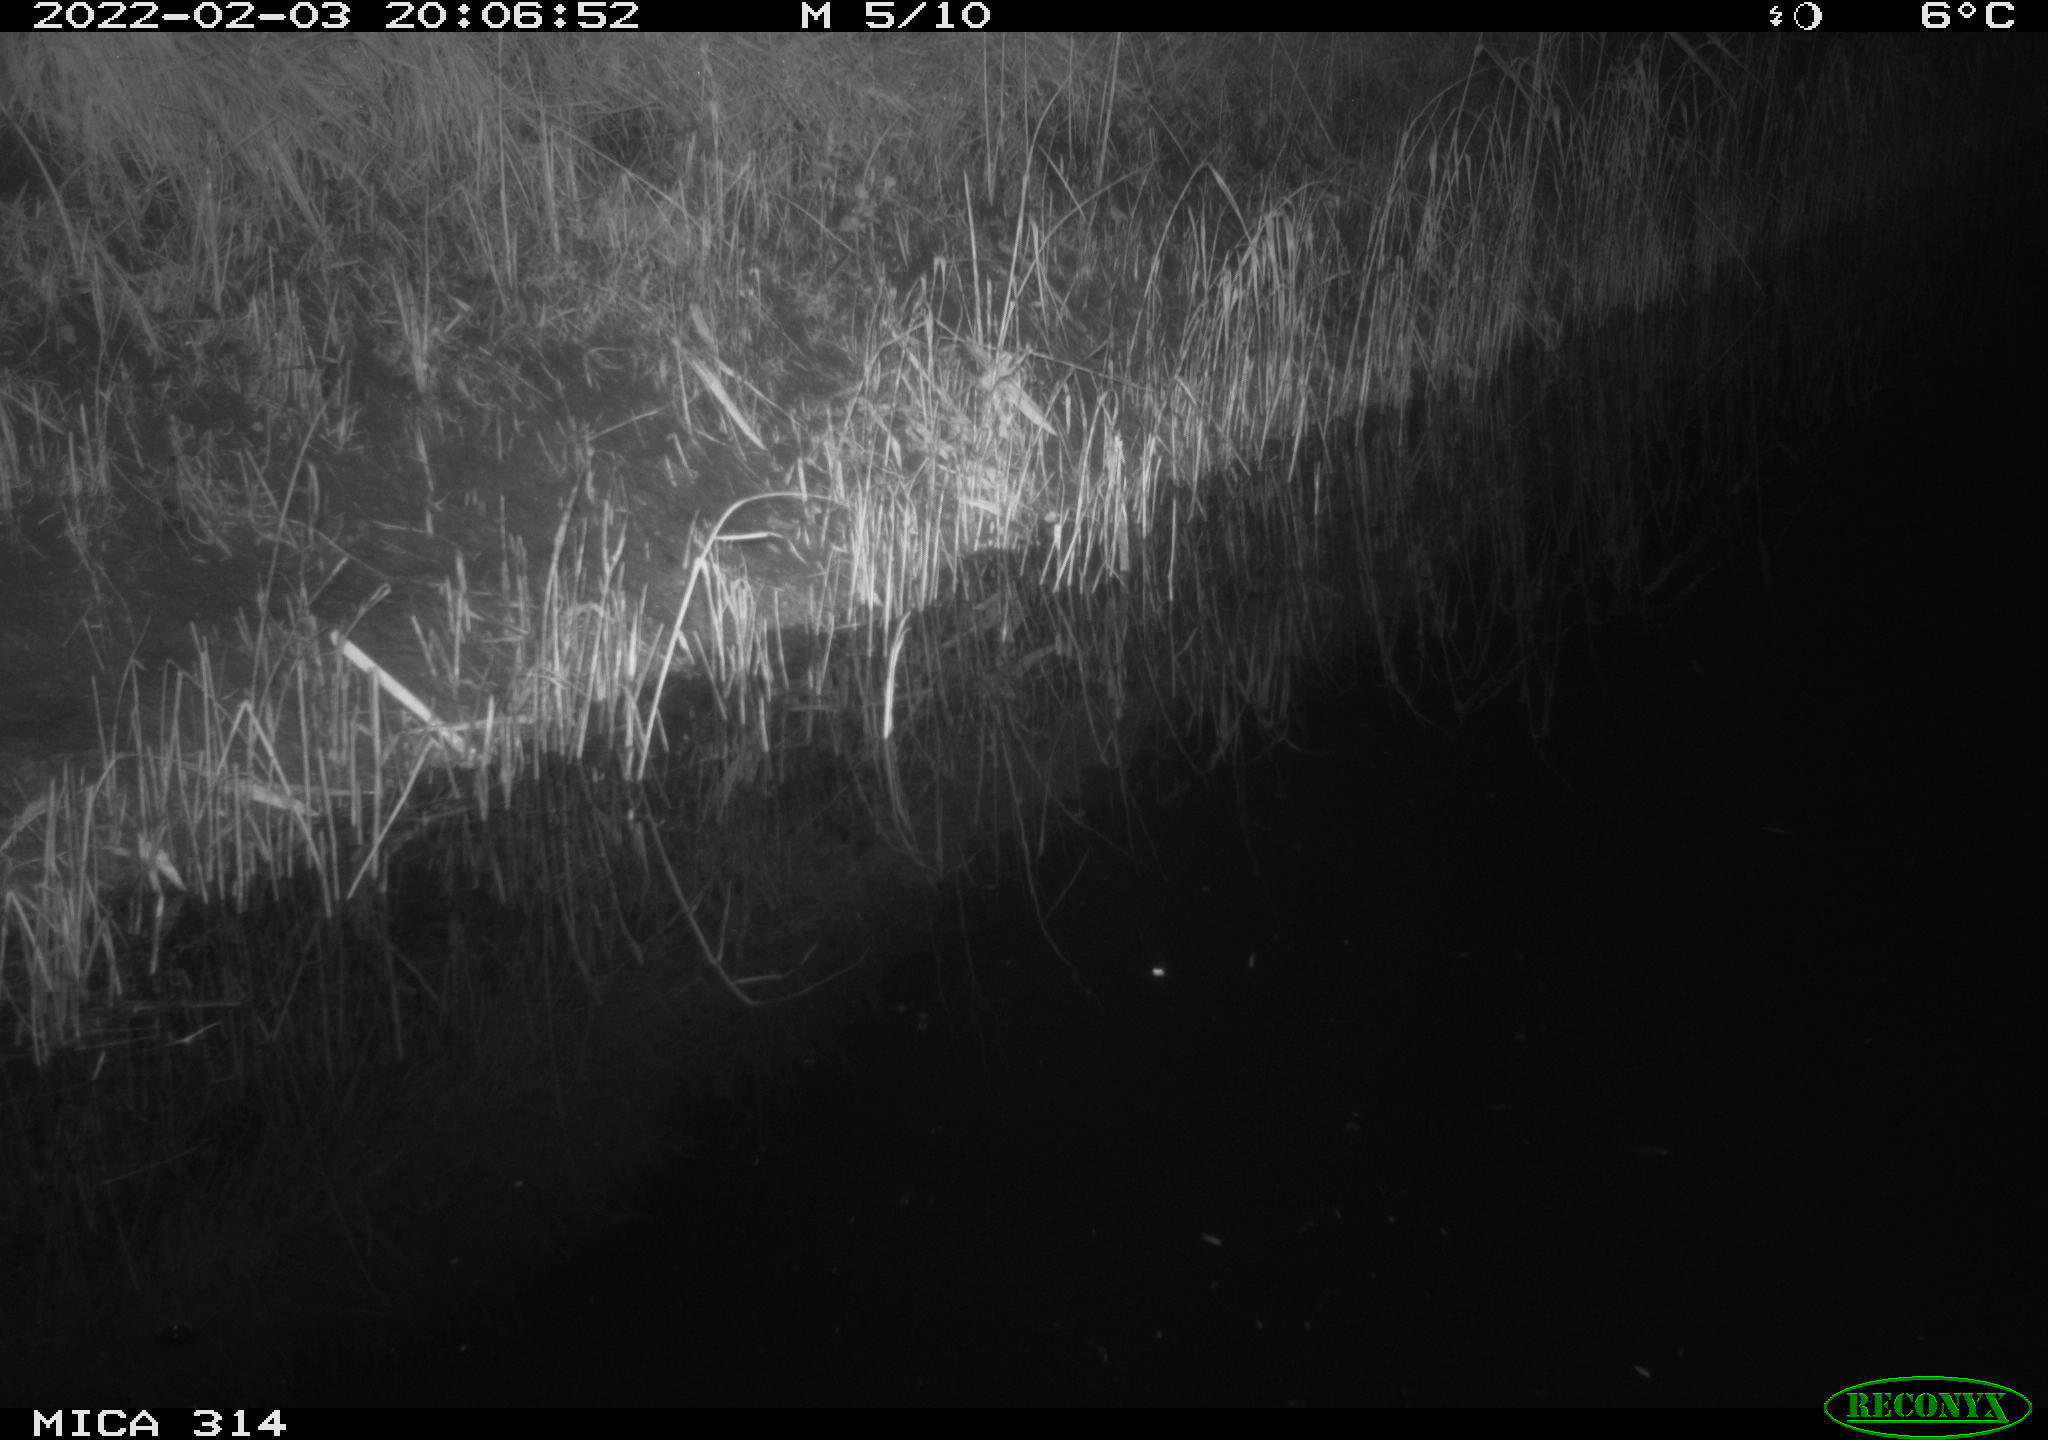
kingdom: Animalia
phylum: Chordata
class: Mammalia
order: Rodentia
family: Muridae
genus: Rattus
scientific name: Rattus norvegicus
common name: Brown rat
